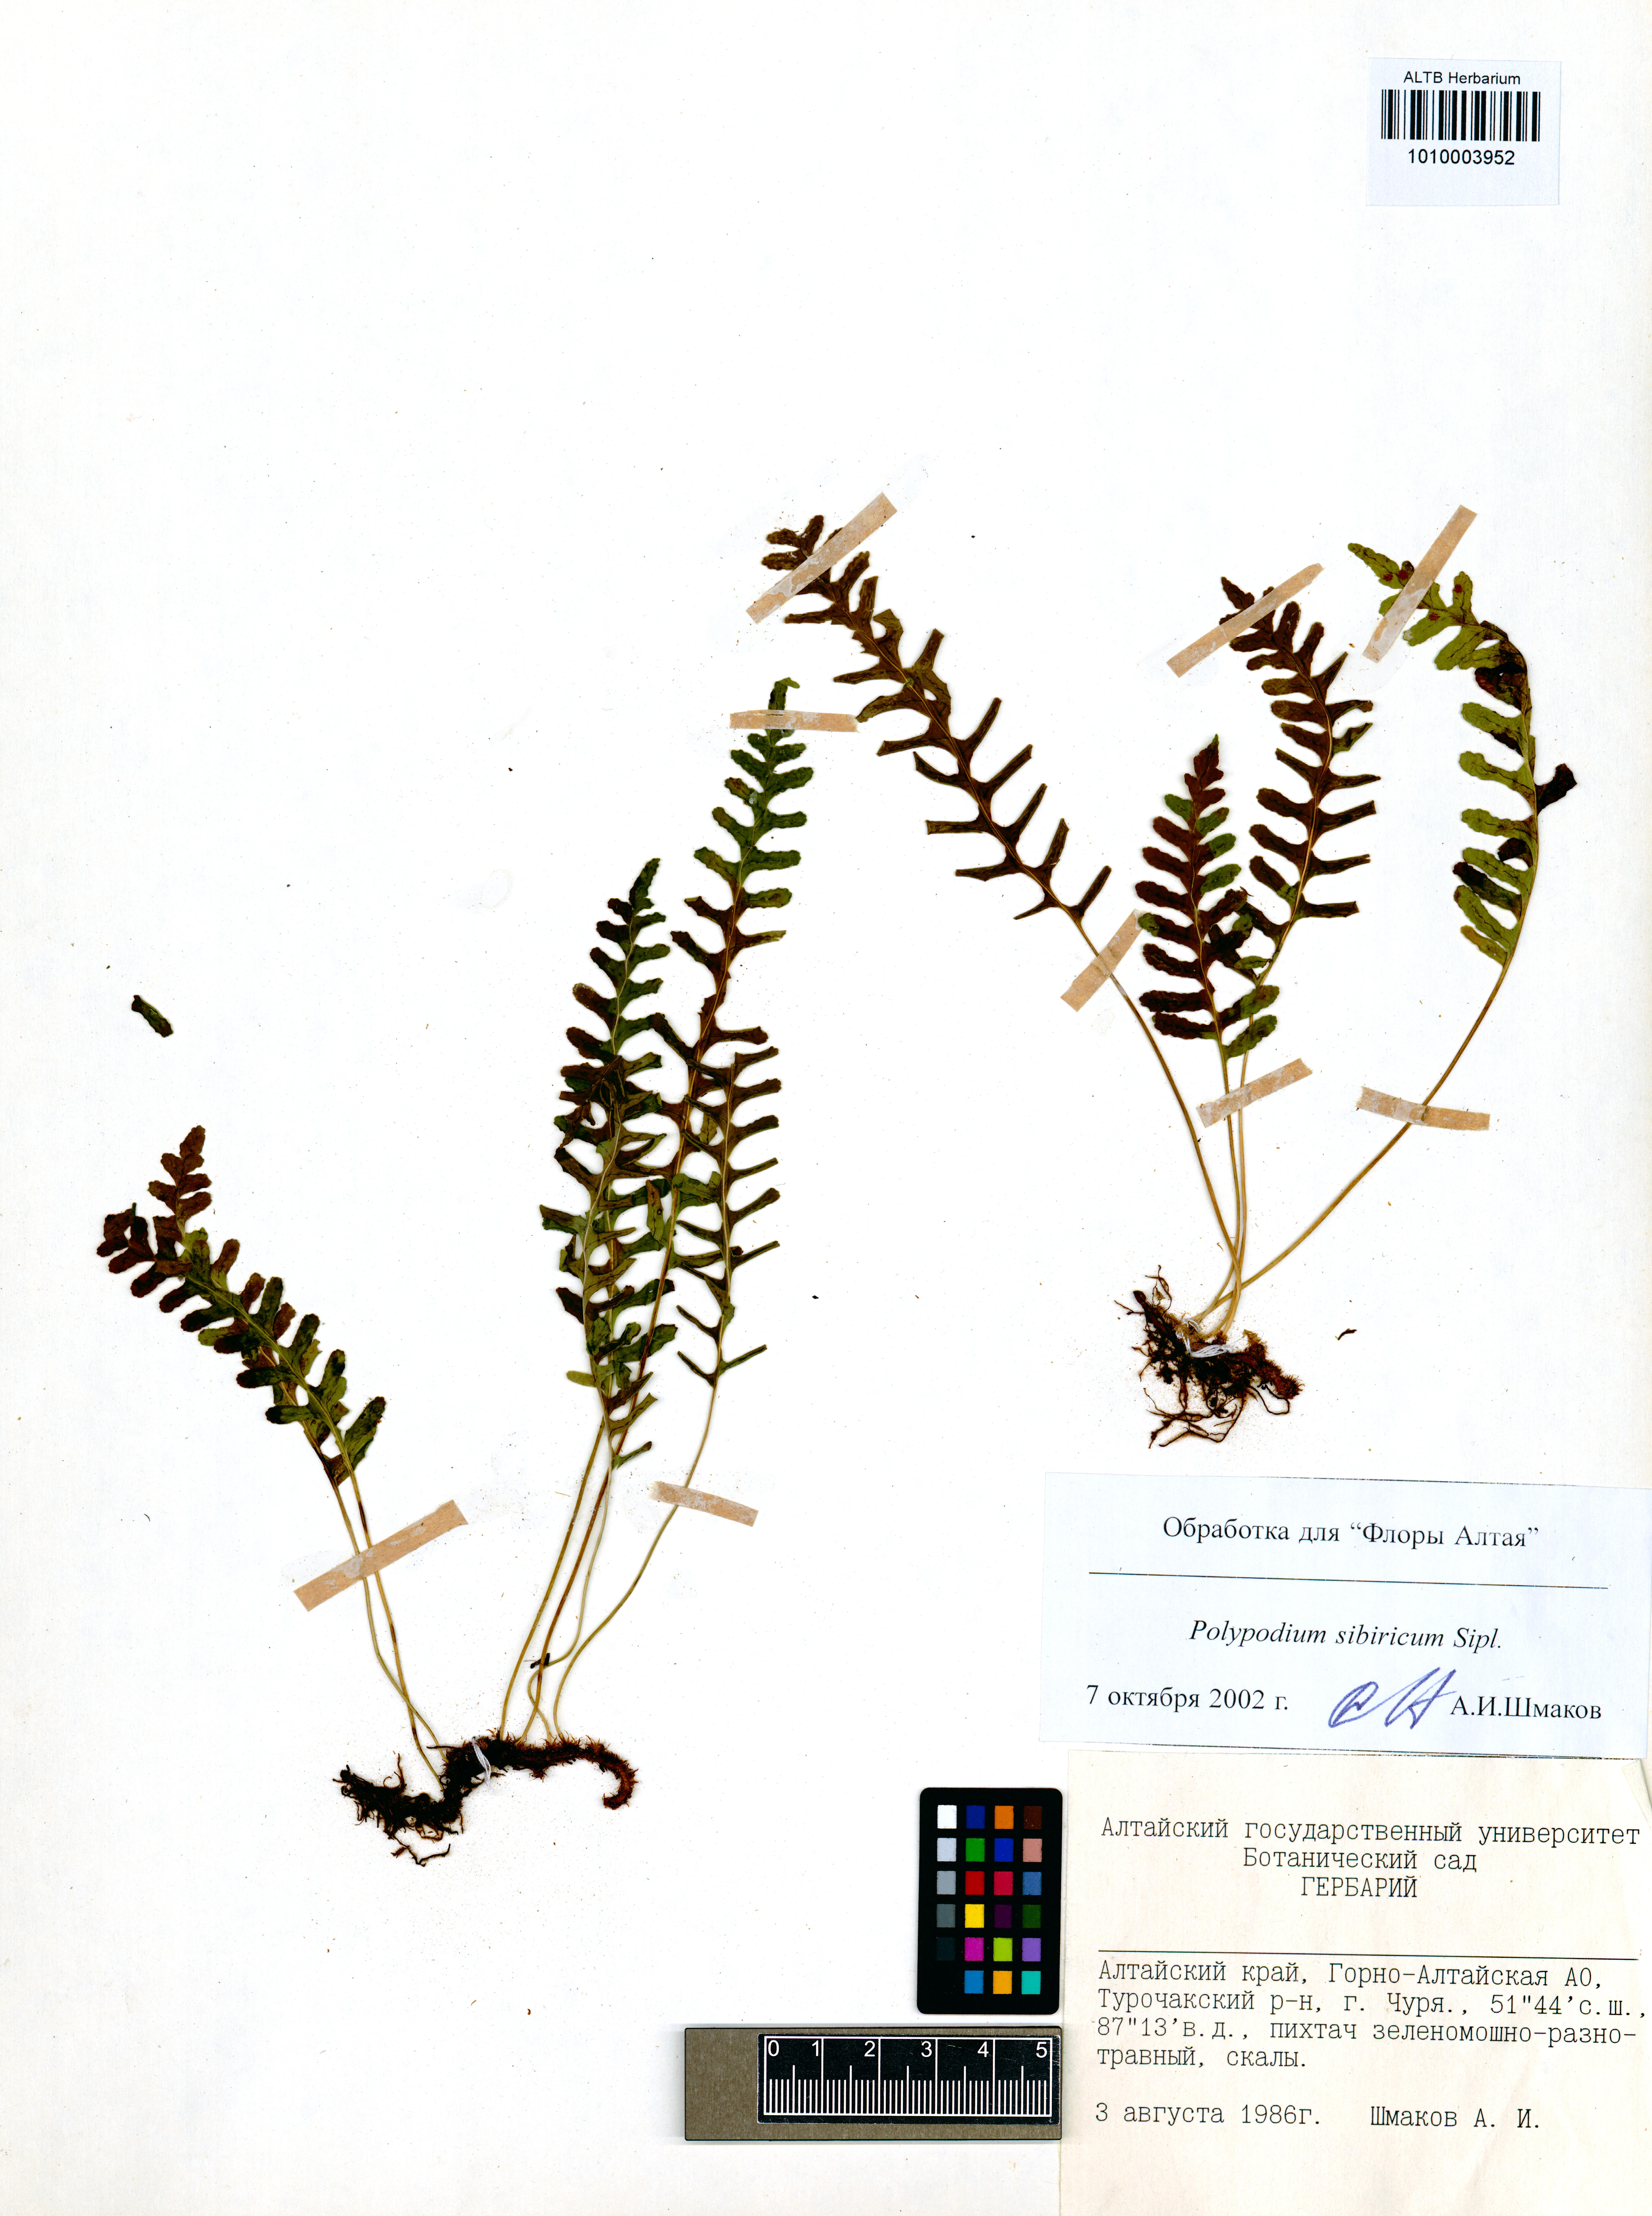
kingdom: Plantae
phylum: Tracheophyta
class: Polypodiopsida
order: Polypodiales
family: Polypodiaceae
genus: Polypodium
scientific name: Polypodium sibiricum
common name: Siberian polypody
